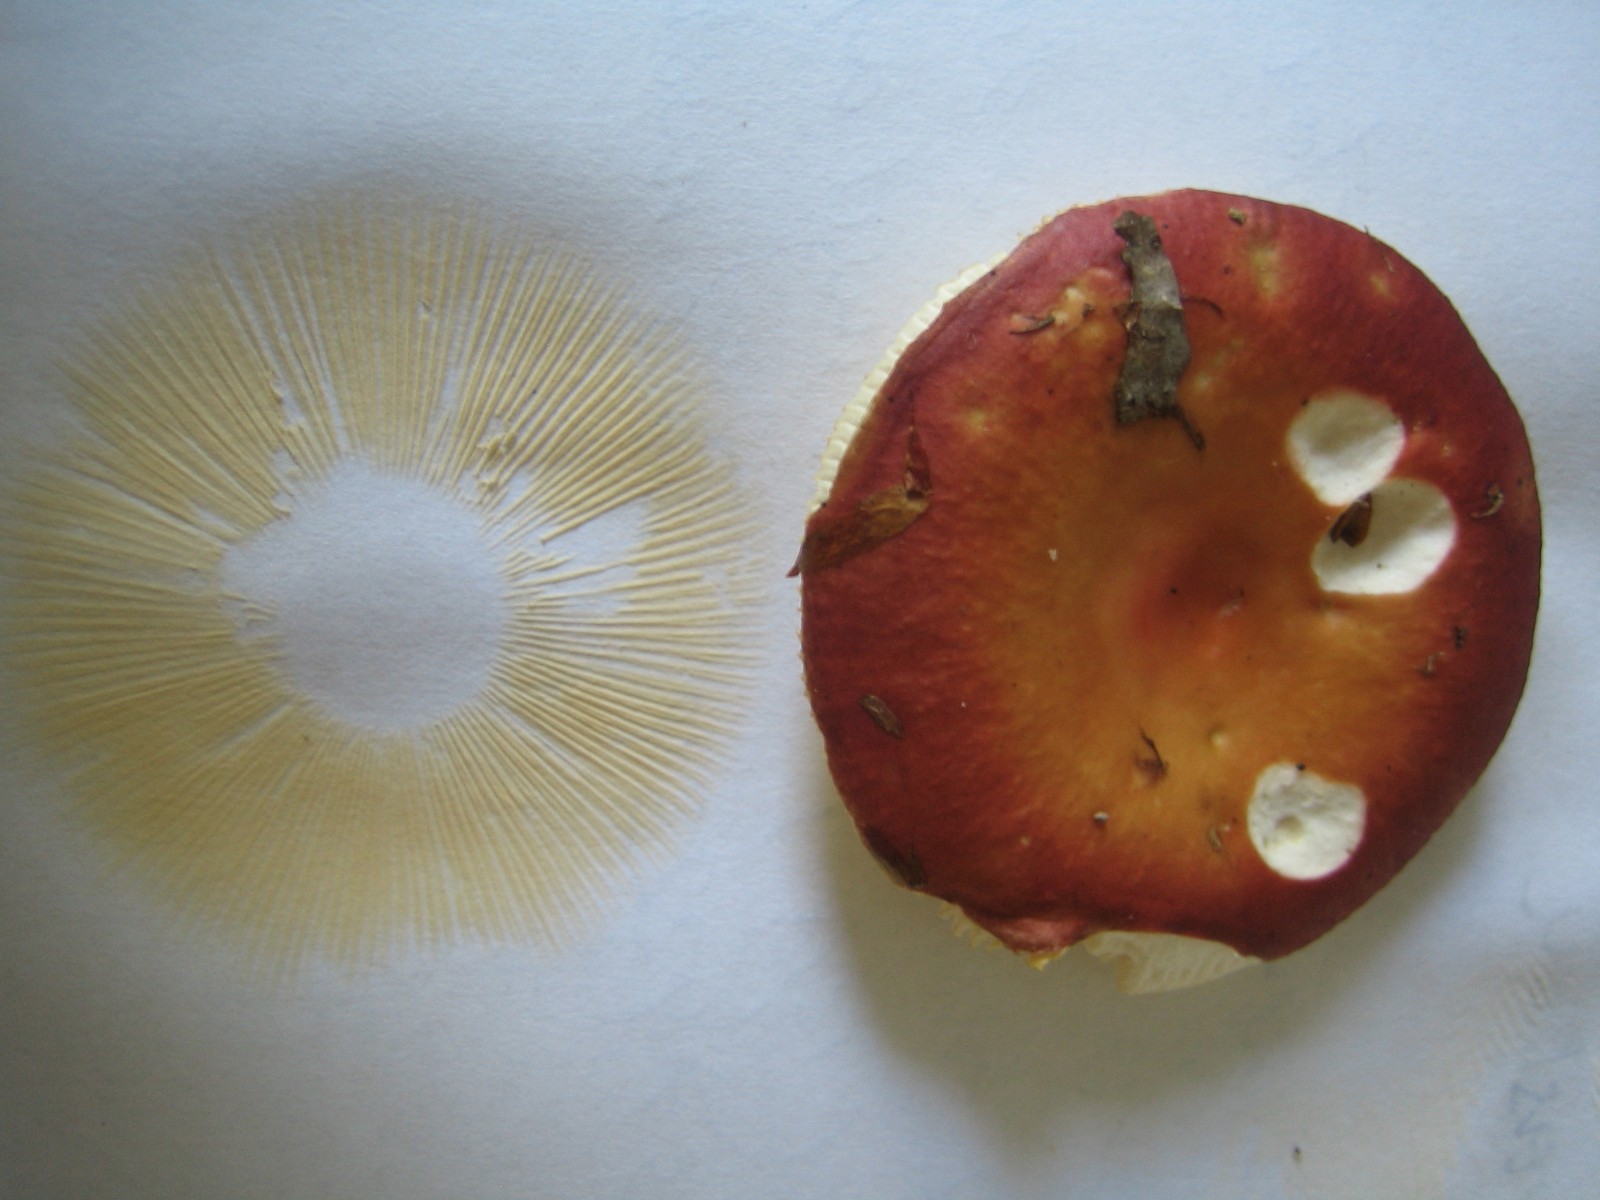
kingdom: Fungi
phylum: Basidiomycota
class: Agaricomycetes
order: Russulales
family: Russulaceae
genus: Russula
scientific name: Russula vesca
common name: spiselig skørhat
